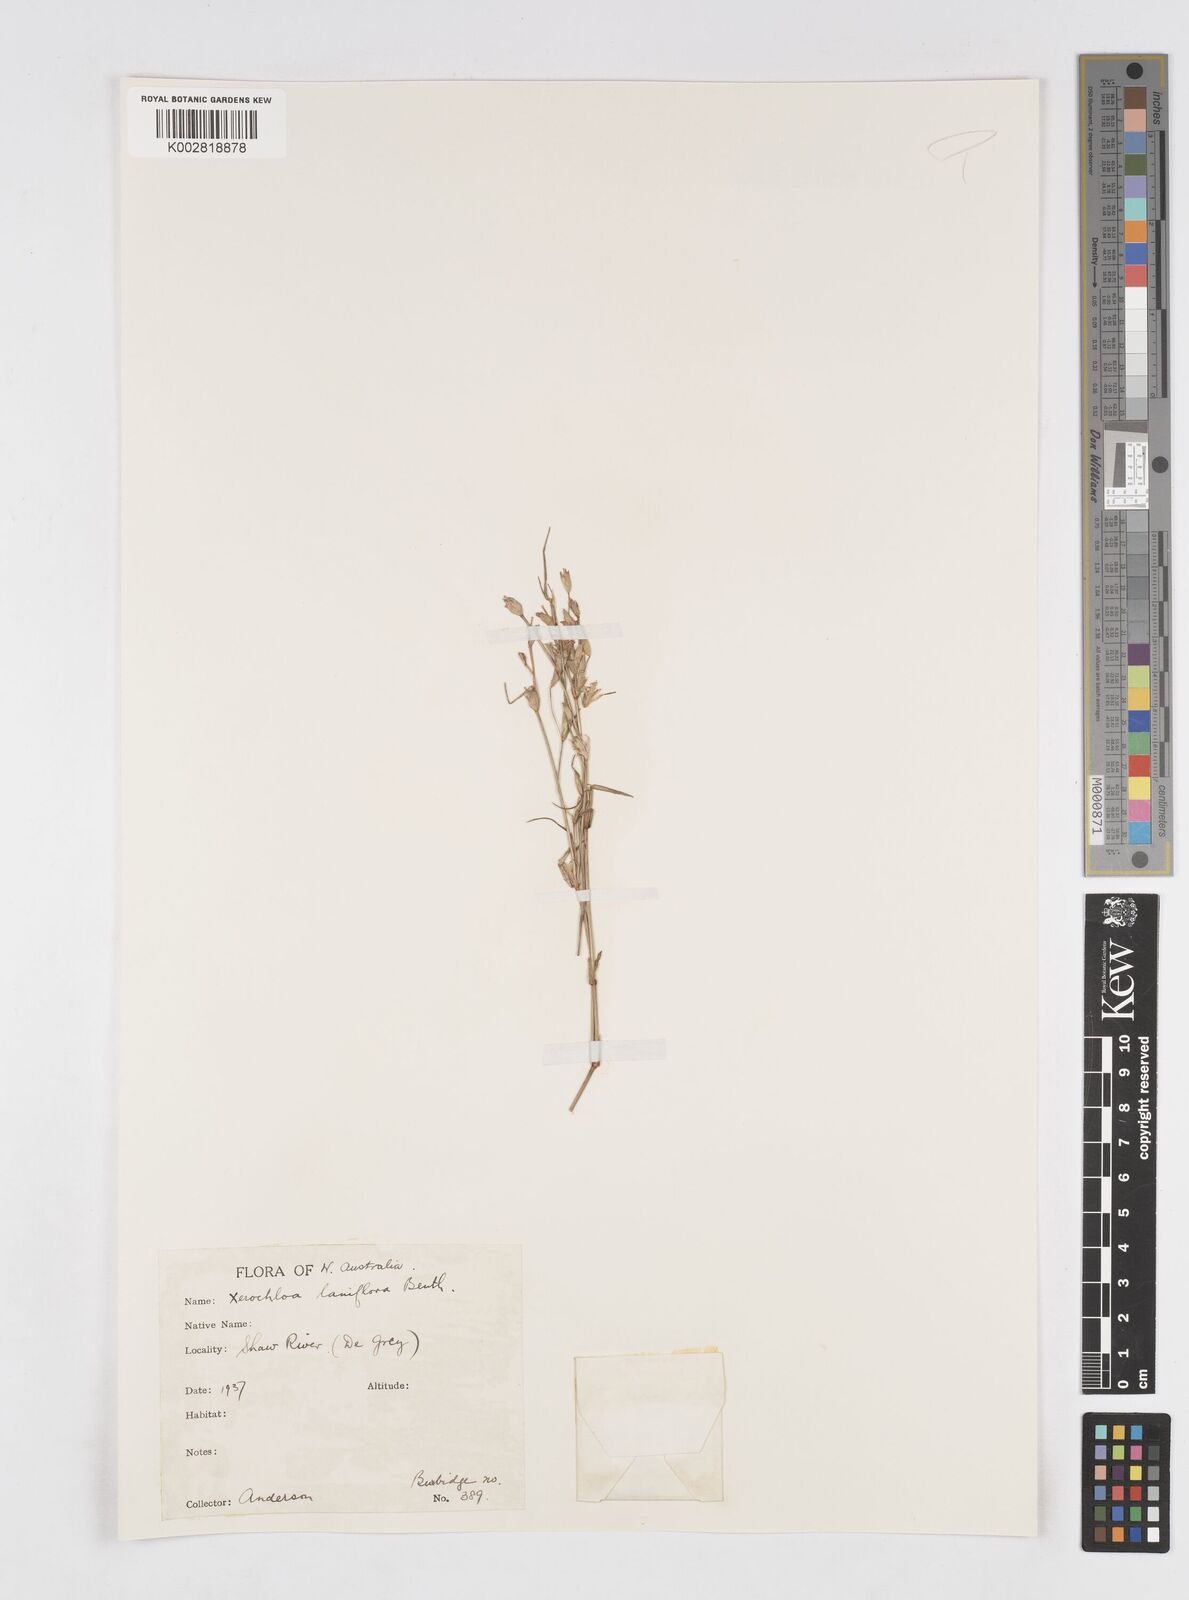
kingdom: Plantae
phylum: Tracheophyta
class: Liliopsida
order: Poales
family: Poaceae
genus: Xerochloa
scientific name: Xerochloa laniflora
